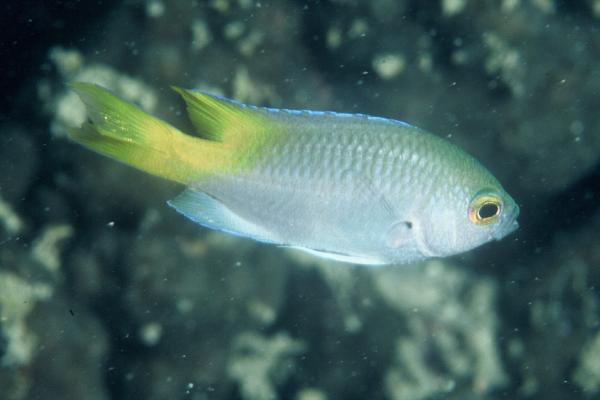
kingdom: Animalia
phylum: Chordata
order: Perciformes
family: Pomacentridae
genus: Neopomacentrus
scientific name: Neopomacentrus sindensis
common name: Arabian demoiselle
